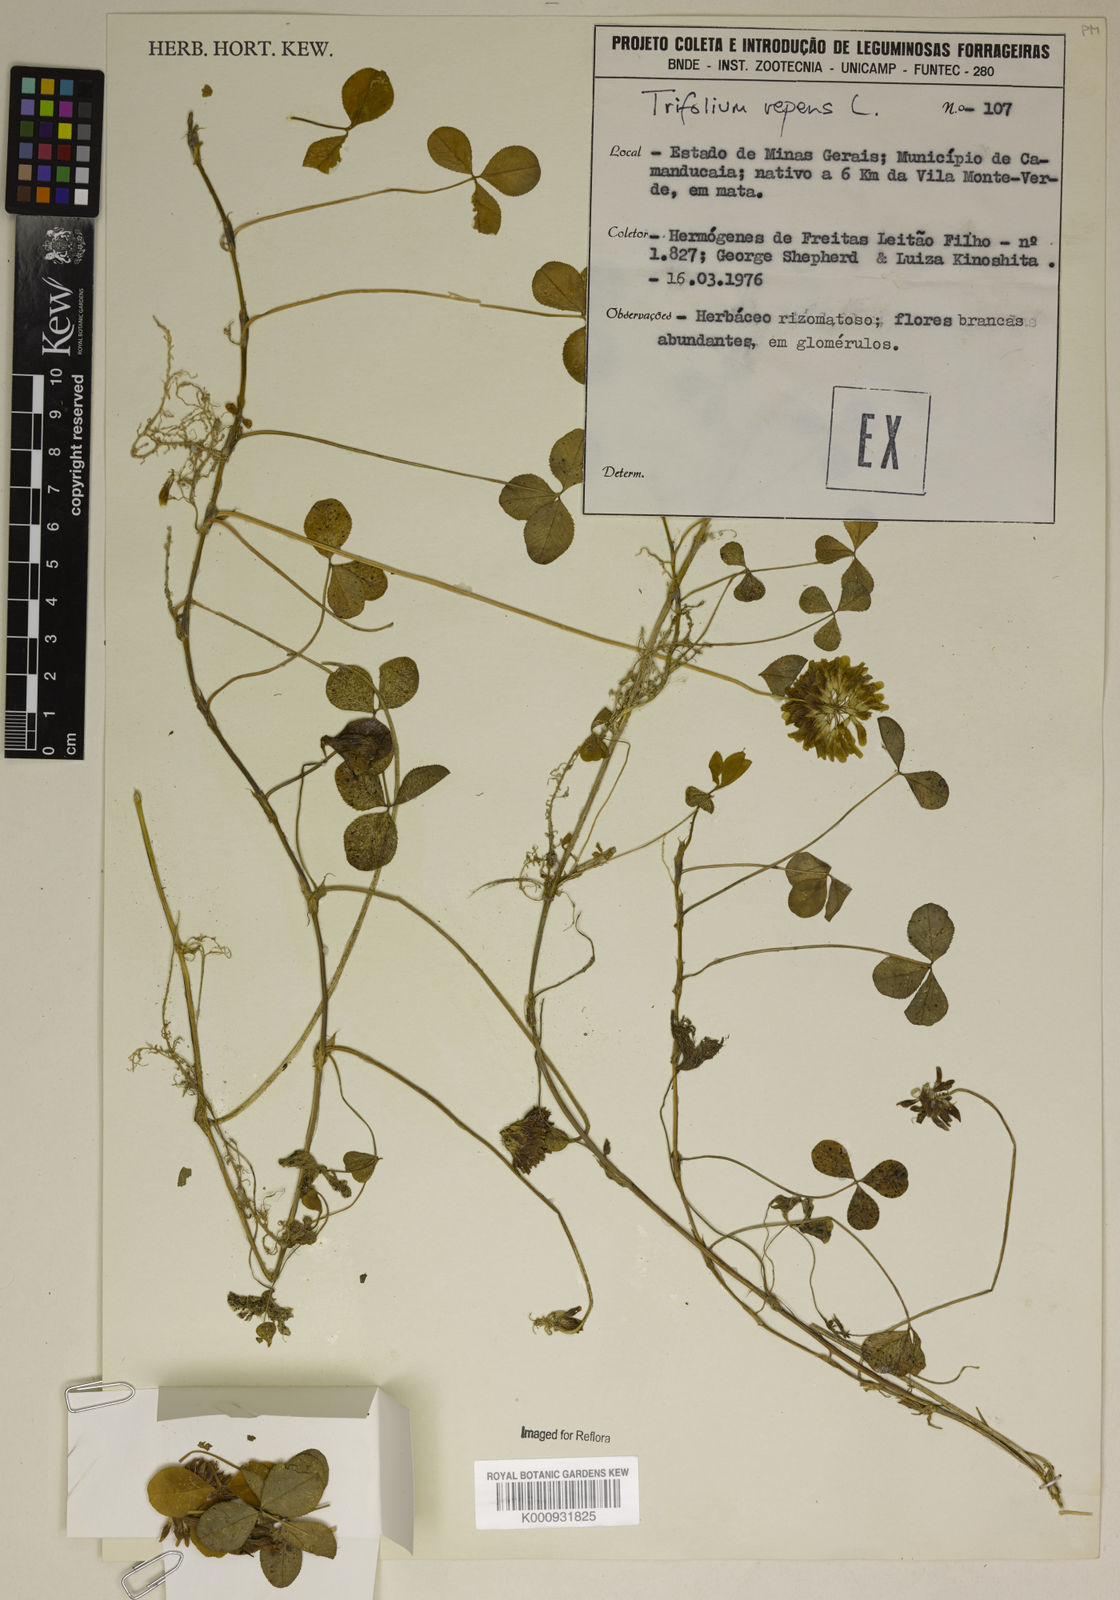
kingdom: Plantae
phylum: Tracheophyta
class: Magnoliopsida
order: Fabales
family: Fabaceae
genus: Trifolium
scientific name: Trifolium repens
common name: White clover
